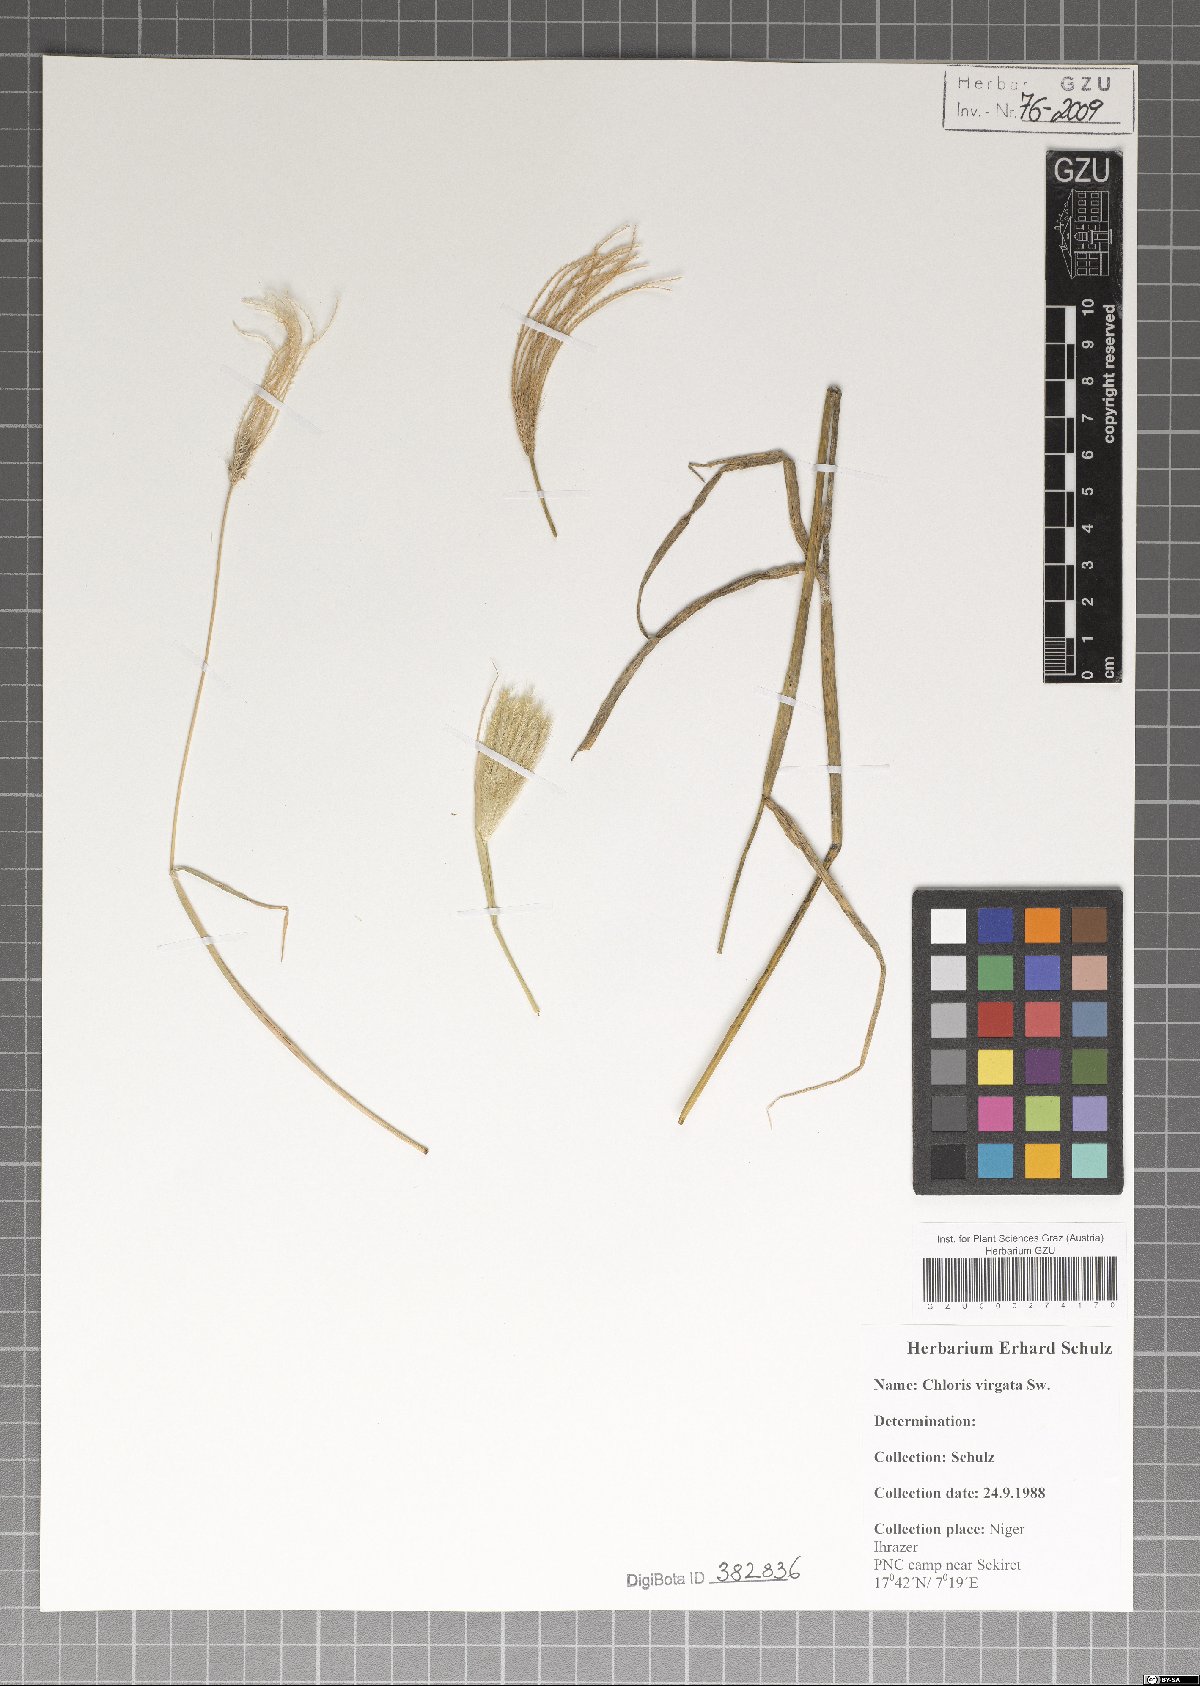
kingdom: Plantae
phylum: Tracheophyta
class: Liliopsida
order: Poales
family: Poaceae
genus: Chloris
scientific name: Chloris virgata
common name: Feathery rhodes-grass
